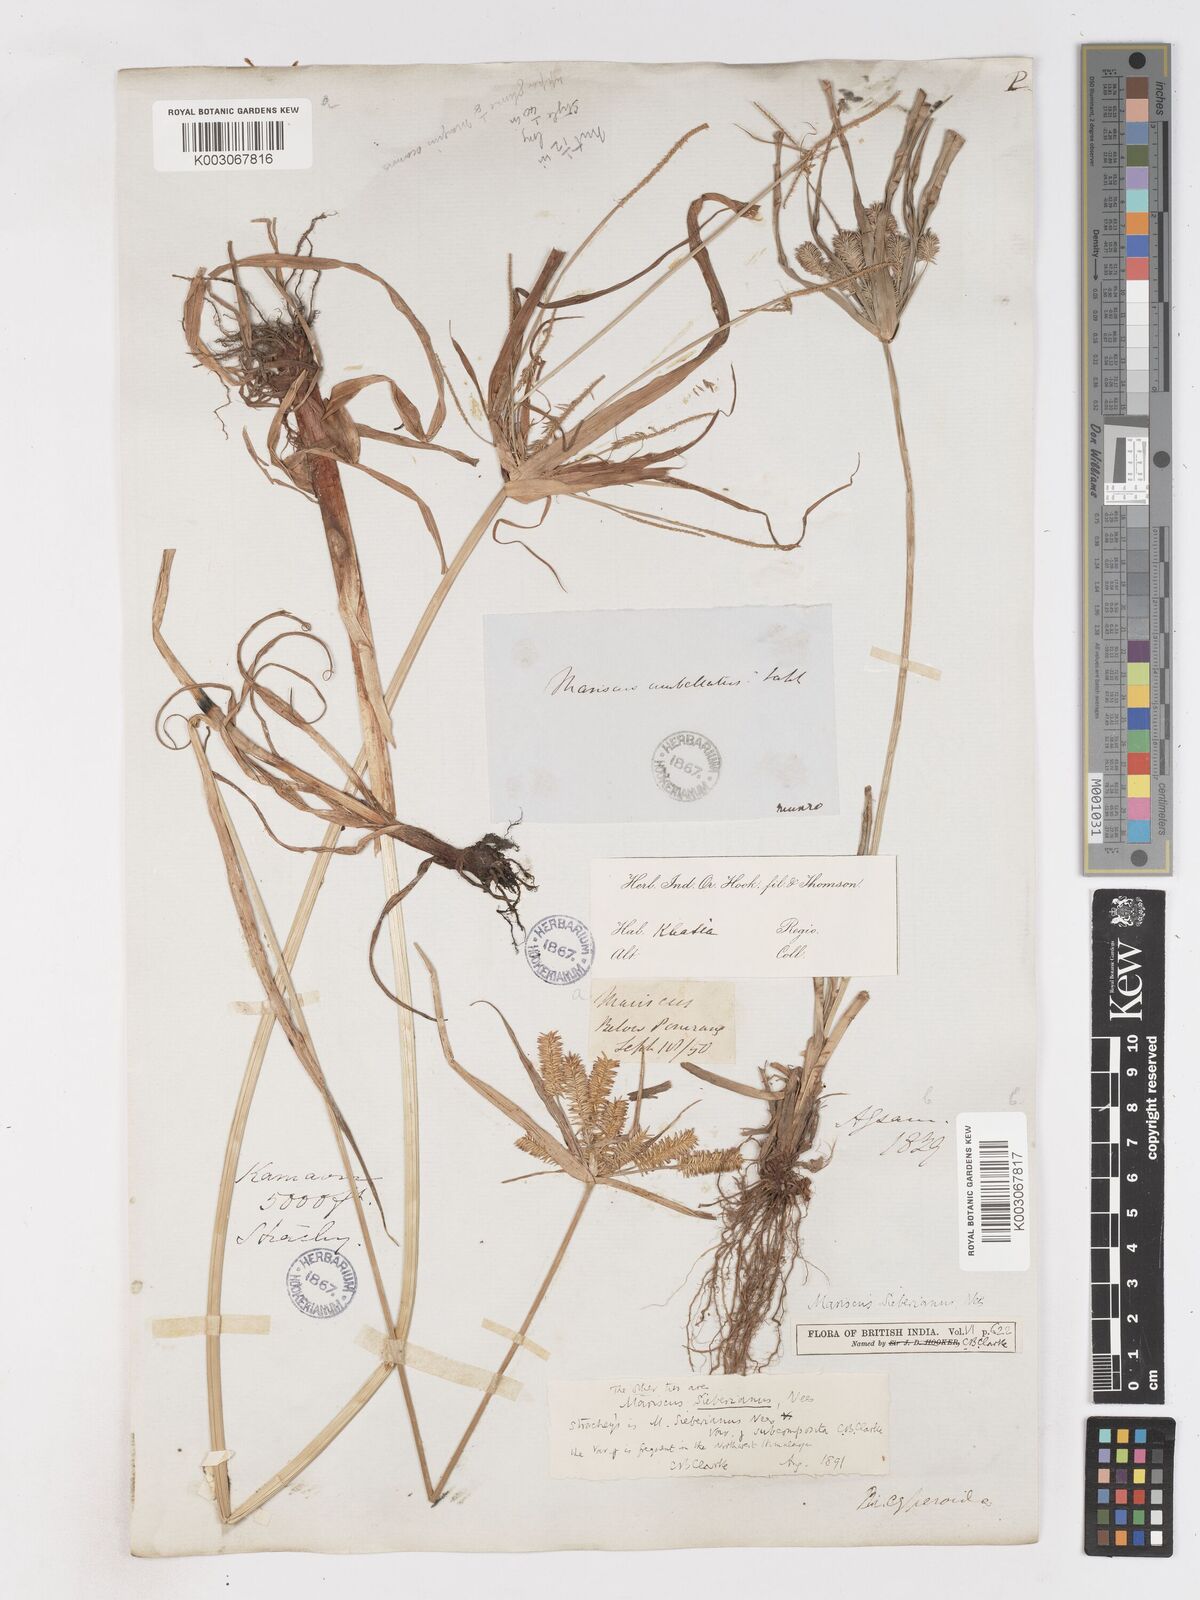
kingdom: Plantae
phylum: Tracheophyta
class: Liliopsida
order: Poales
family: Cyperaceae
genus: Cyperus
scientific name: Cyperus cyperoides
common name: Pacific island flat sedge
